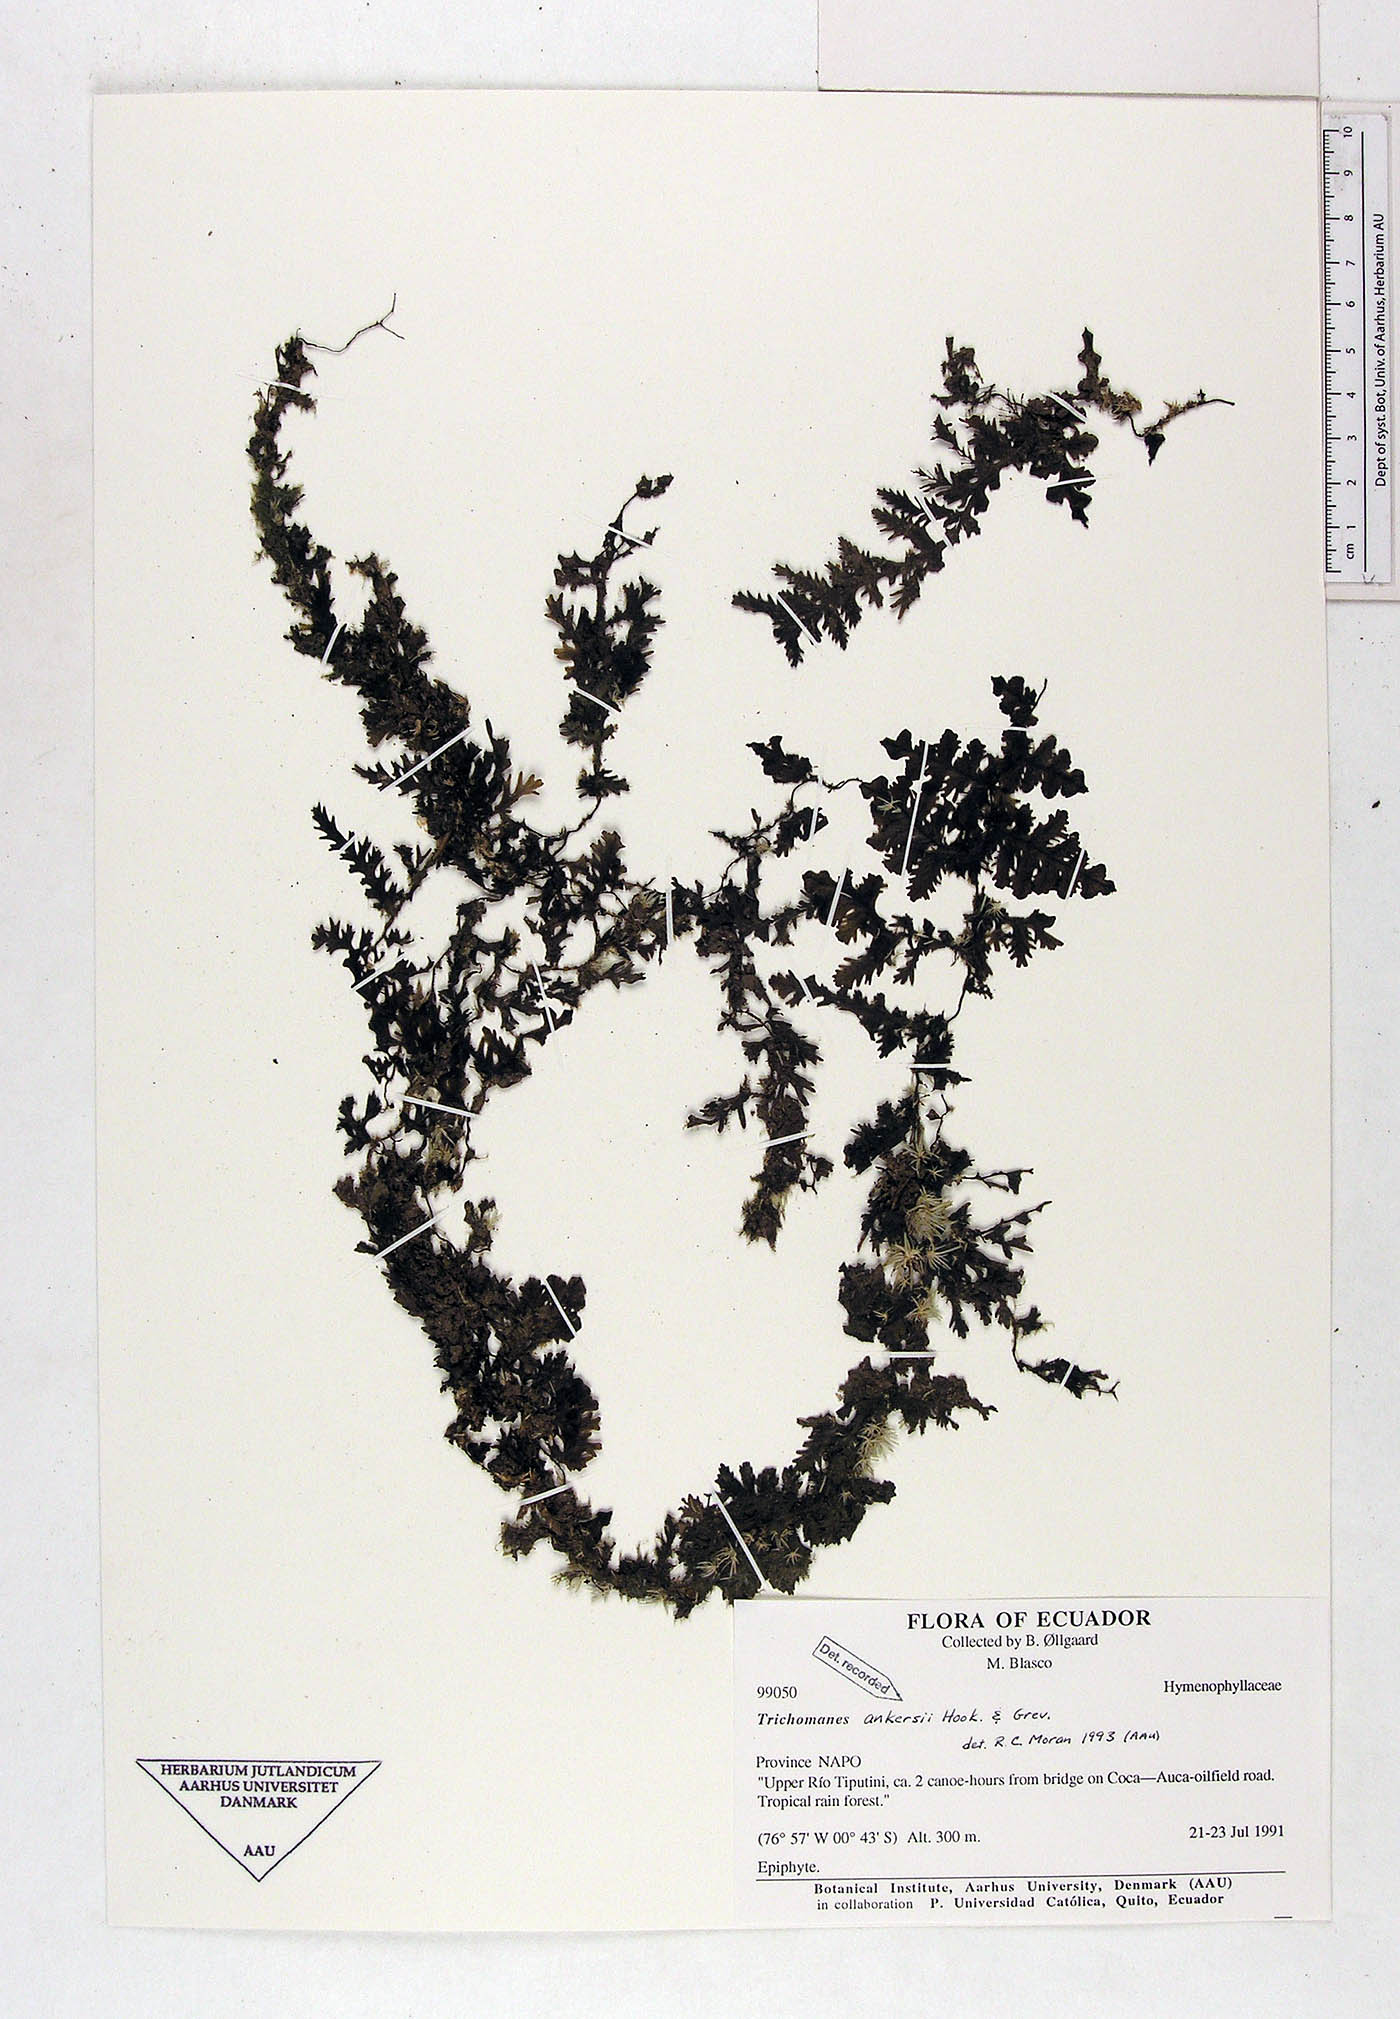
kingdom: Plantae
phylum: Tracheophyta
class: Polypodiopsida
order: Hymenophyllales
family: Hymenophyllaceae
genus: Trichomanes
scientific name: Trichomanes ankersii
